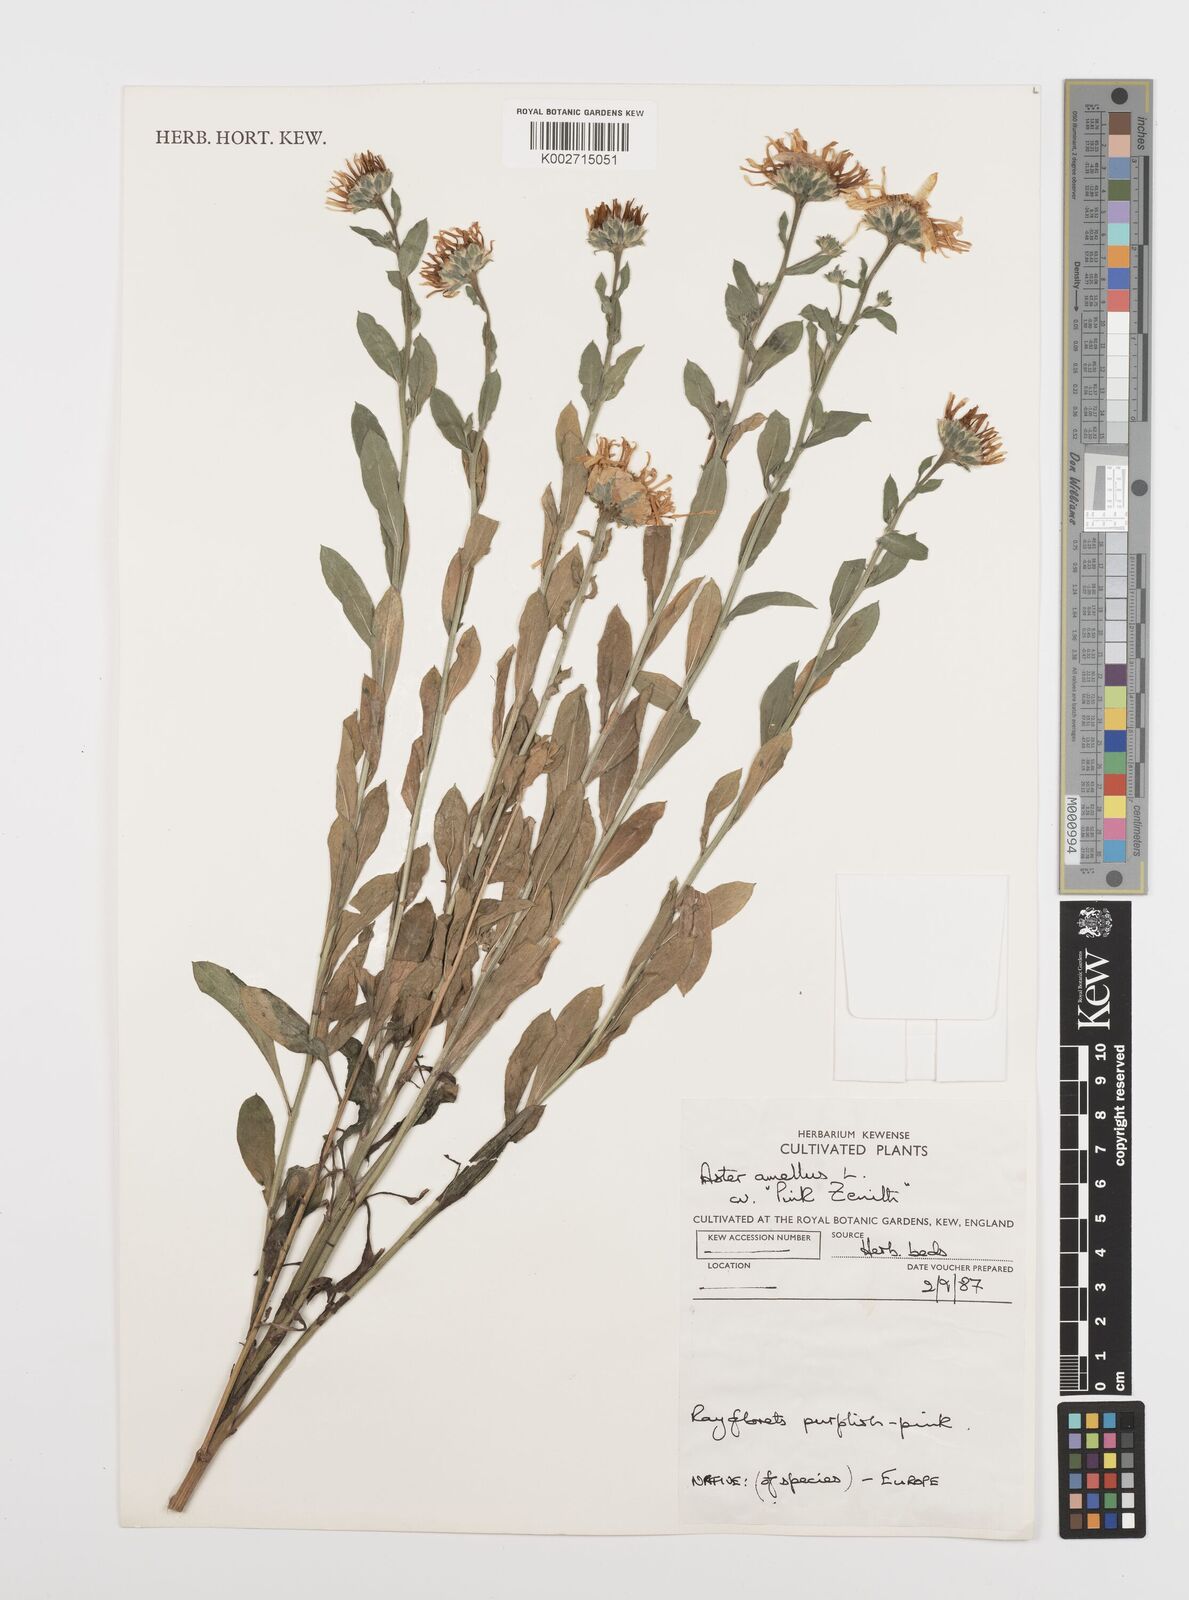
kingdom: Plantae
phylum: Tracheophyta
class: Magnoliopsida
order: Asterales
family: Asteraceae
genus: Aster
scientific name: Aster amellus
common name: European michaelmas daisy
